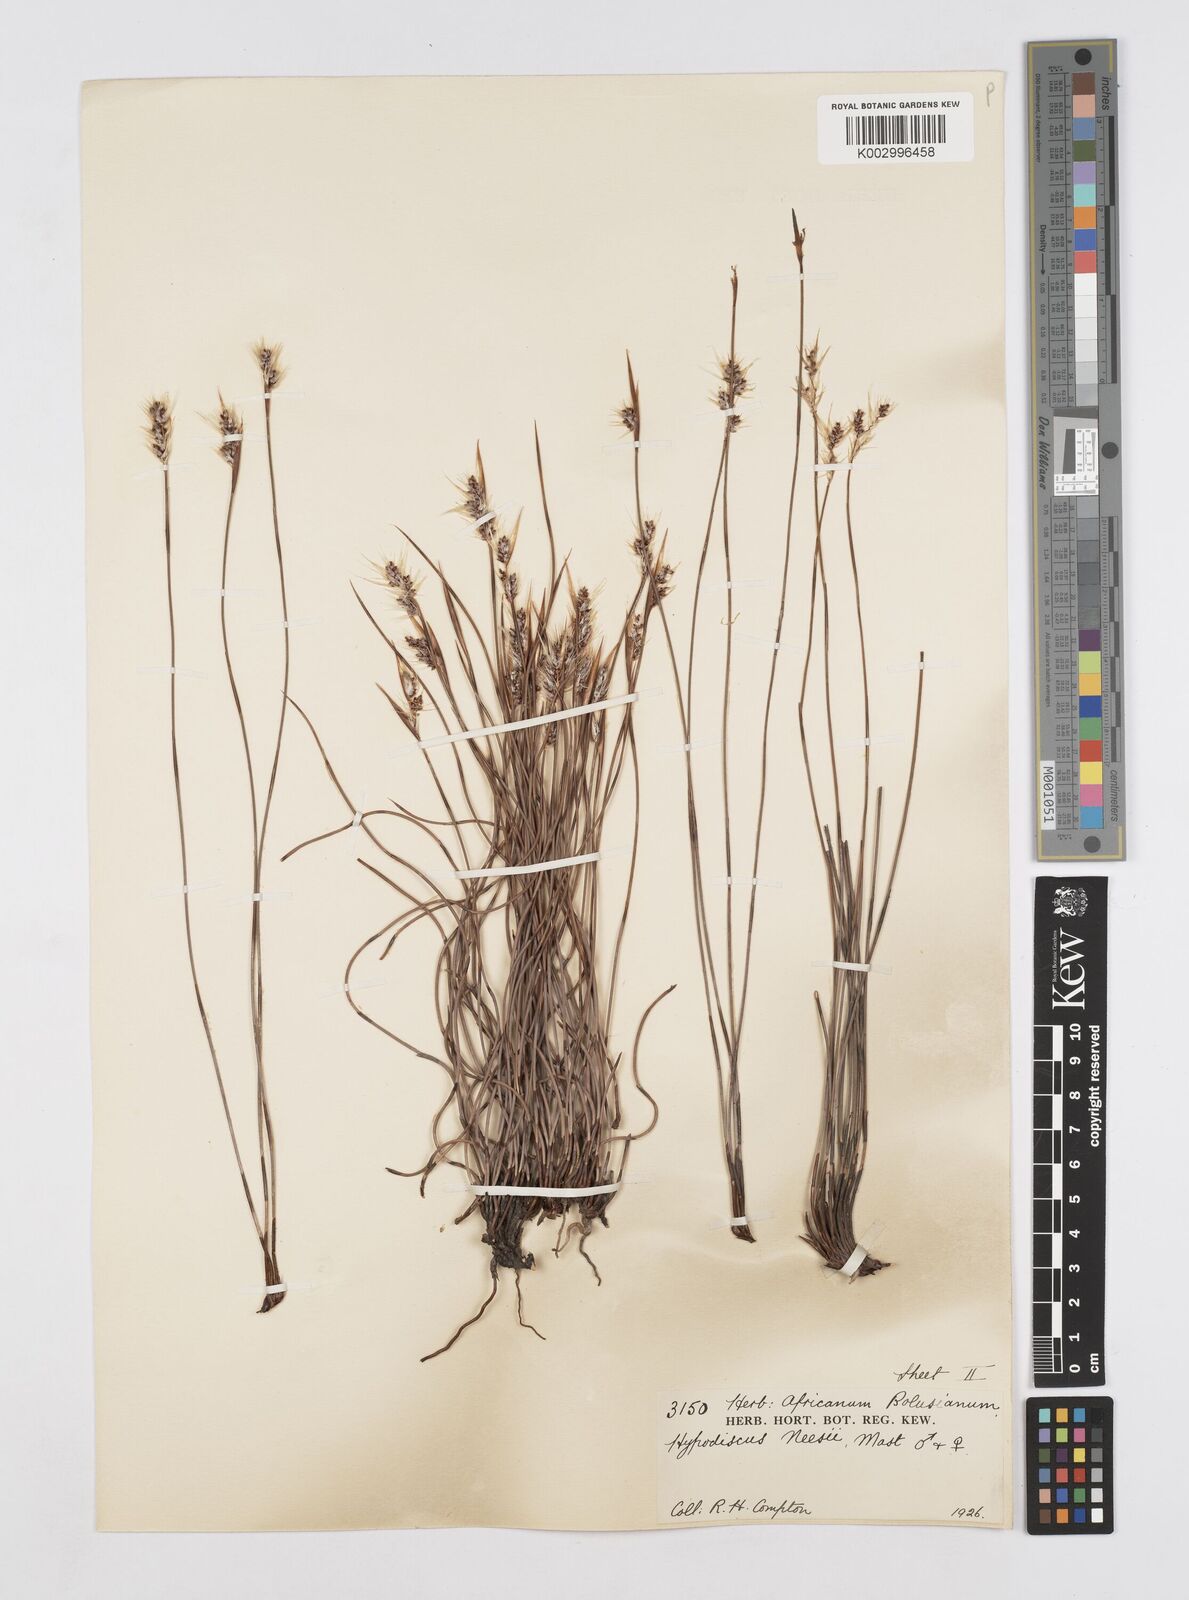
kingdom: Plantae
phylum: Tracheophyta
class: Liliopsida
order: Poales
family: Restionaceae
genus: Hypodiscus
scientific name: Hypodiscus neesii
